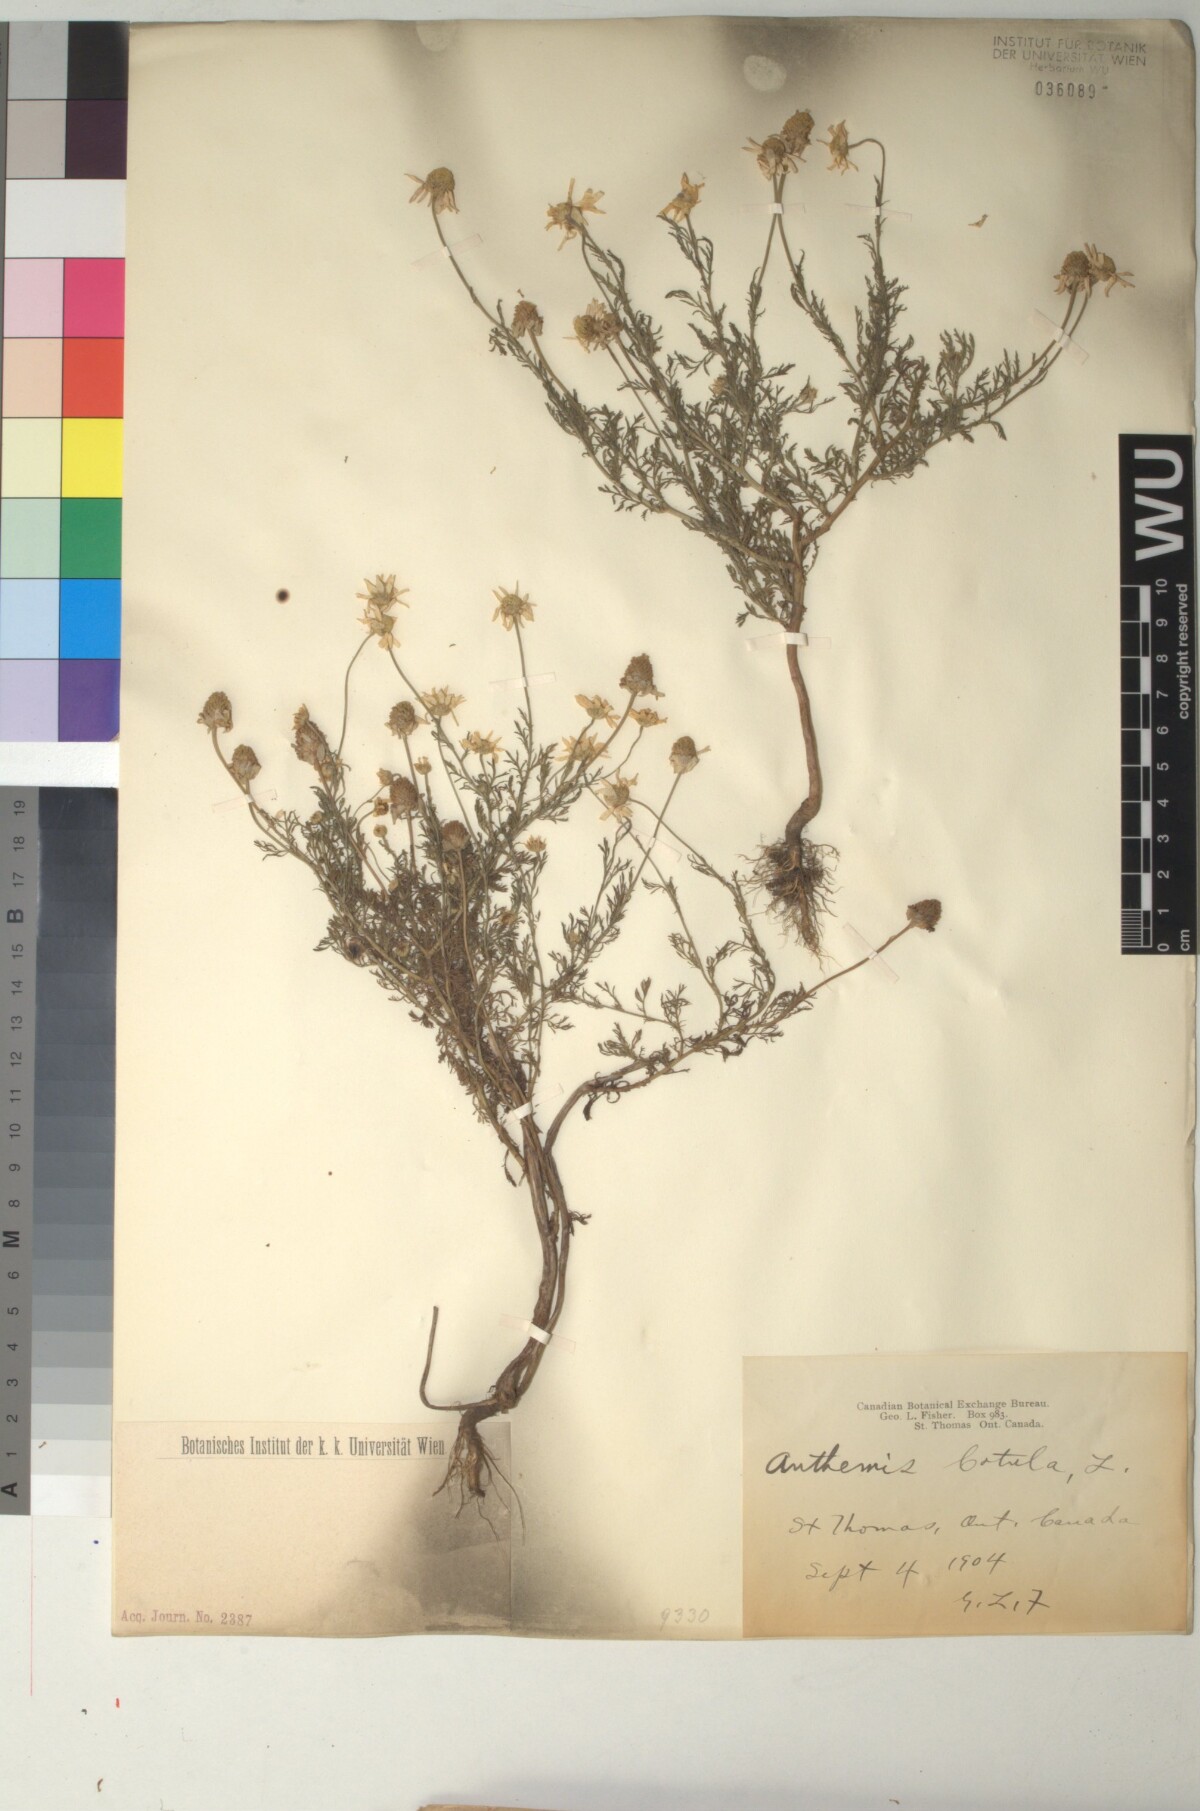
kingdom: Plantae
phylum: Tracheophyta
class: Magnoliopsida
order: Asterales
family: Asteraceae
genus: Anthemis
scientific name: Anthemis cotula
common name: Stinking chamomile
